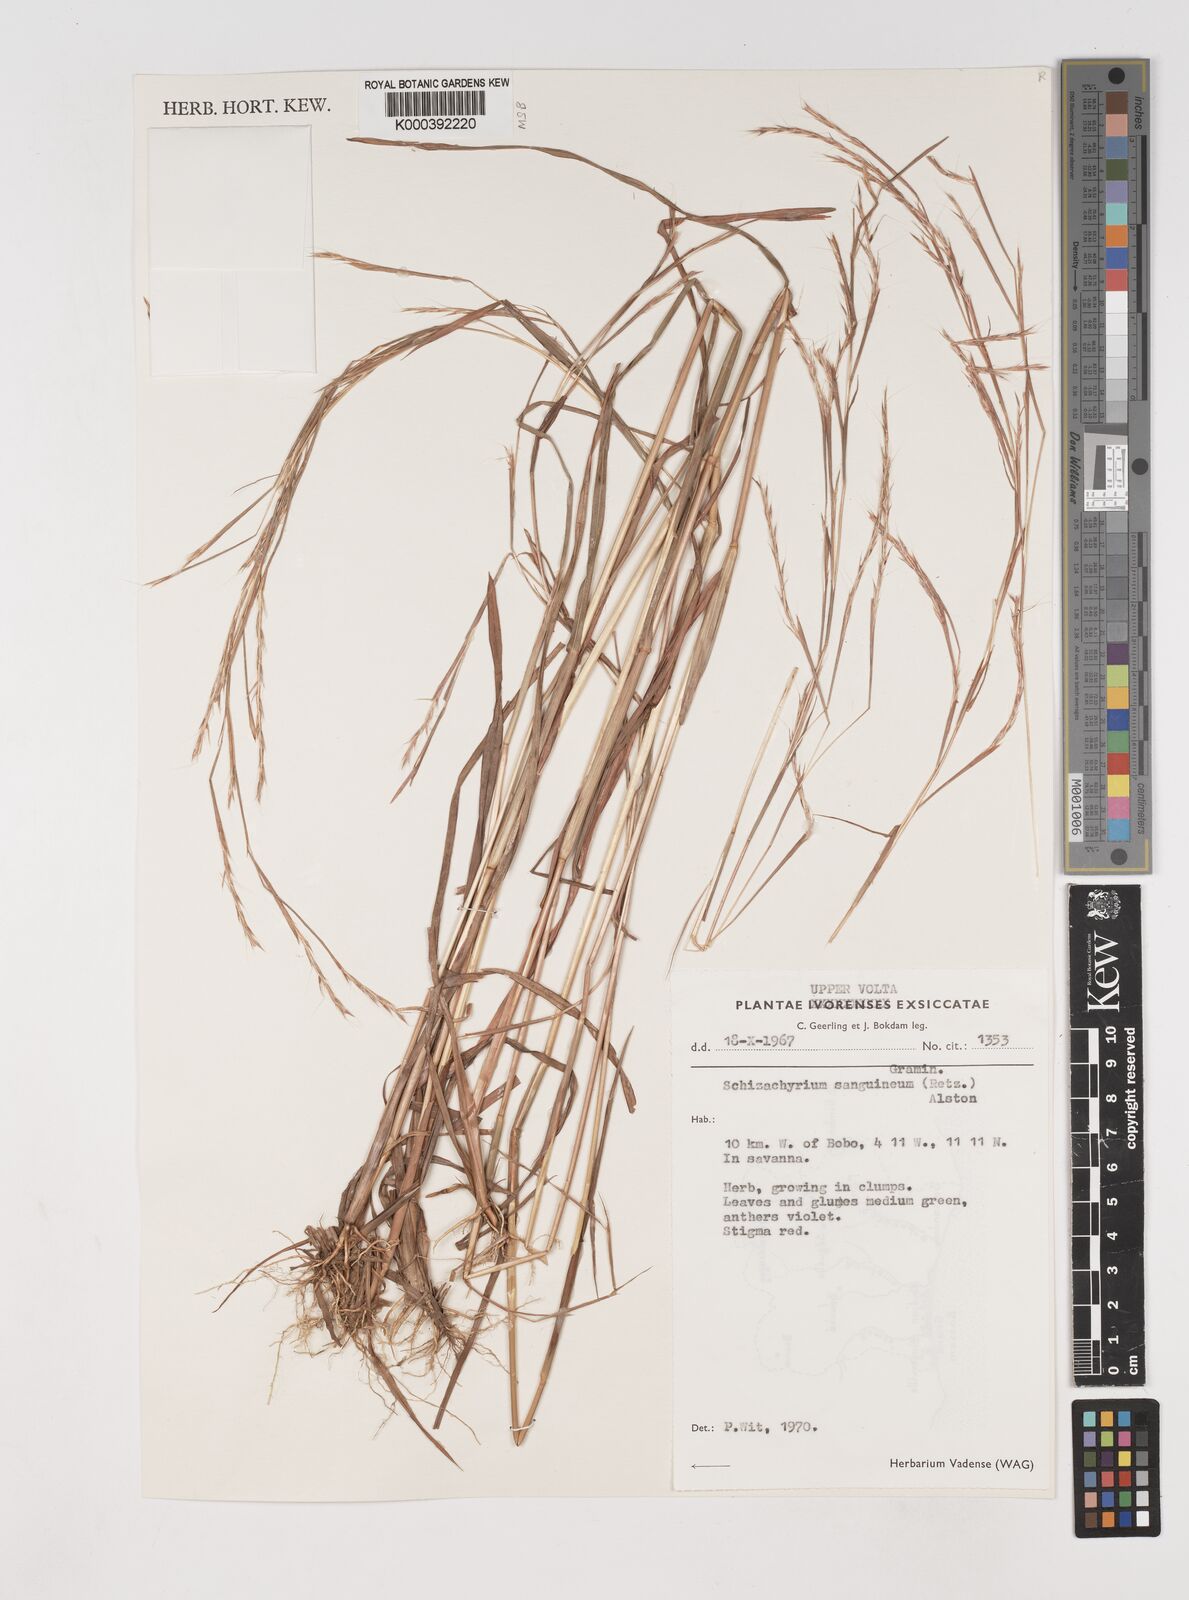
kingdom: Plantae
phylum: Tracheophyta
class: Liliopsida
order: Poales
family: Poaceae
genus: Schizachyrium
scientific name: Schizachyrium sanguineum
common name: Crimson bluestem
